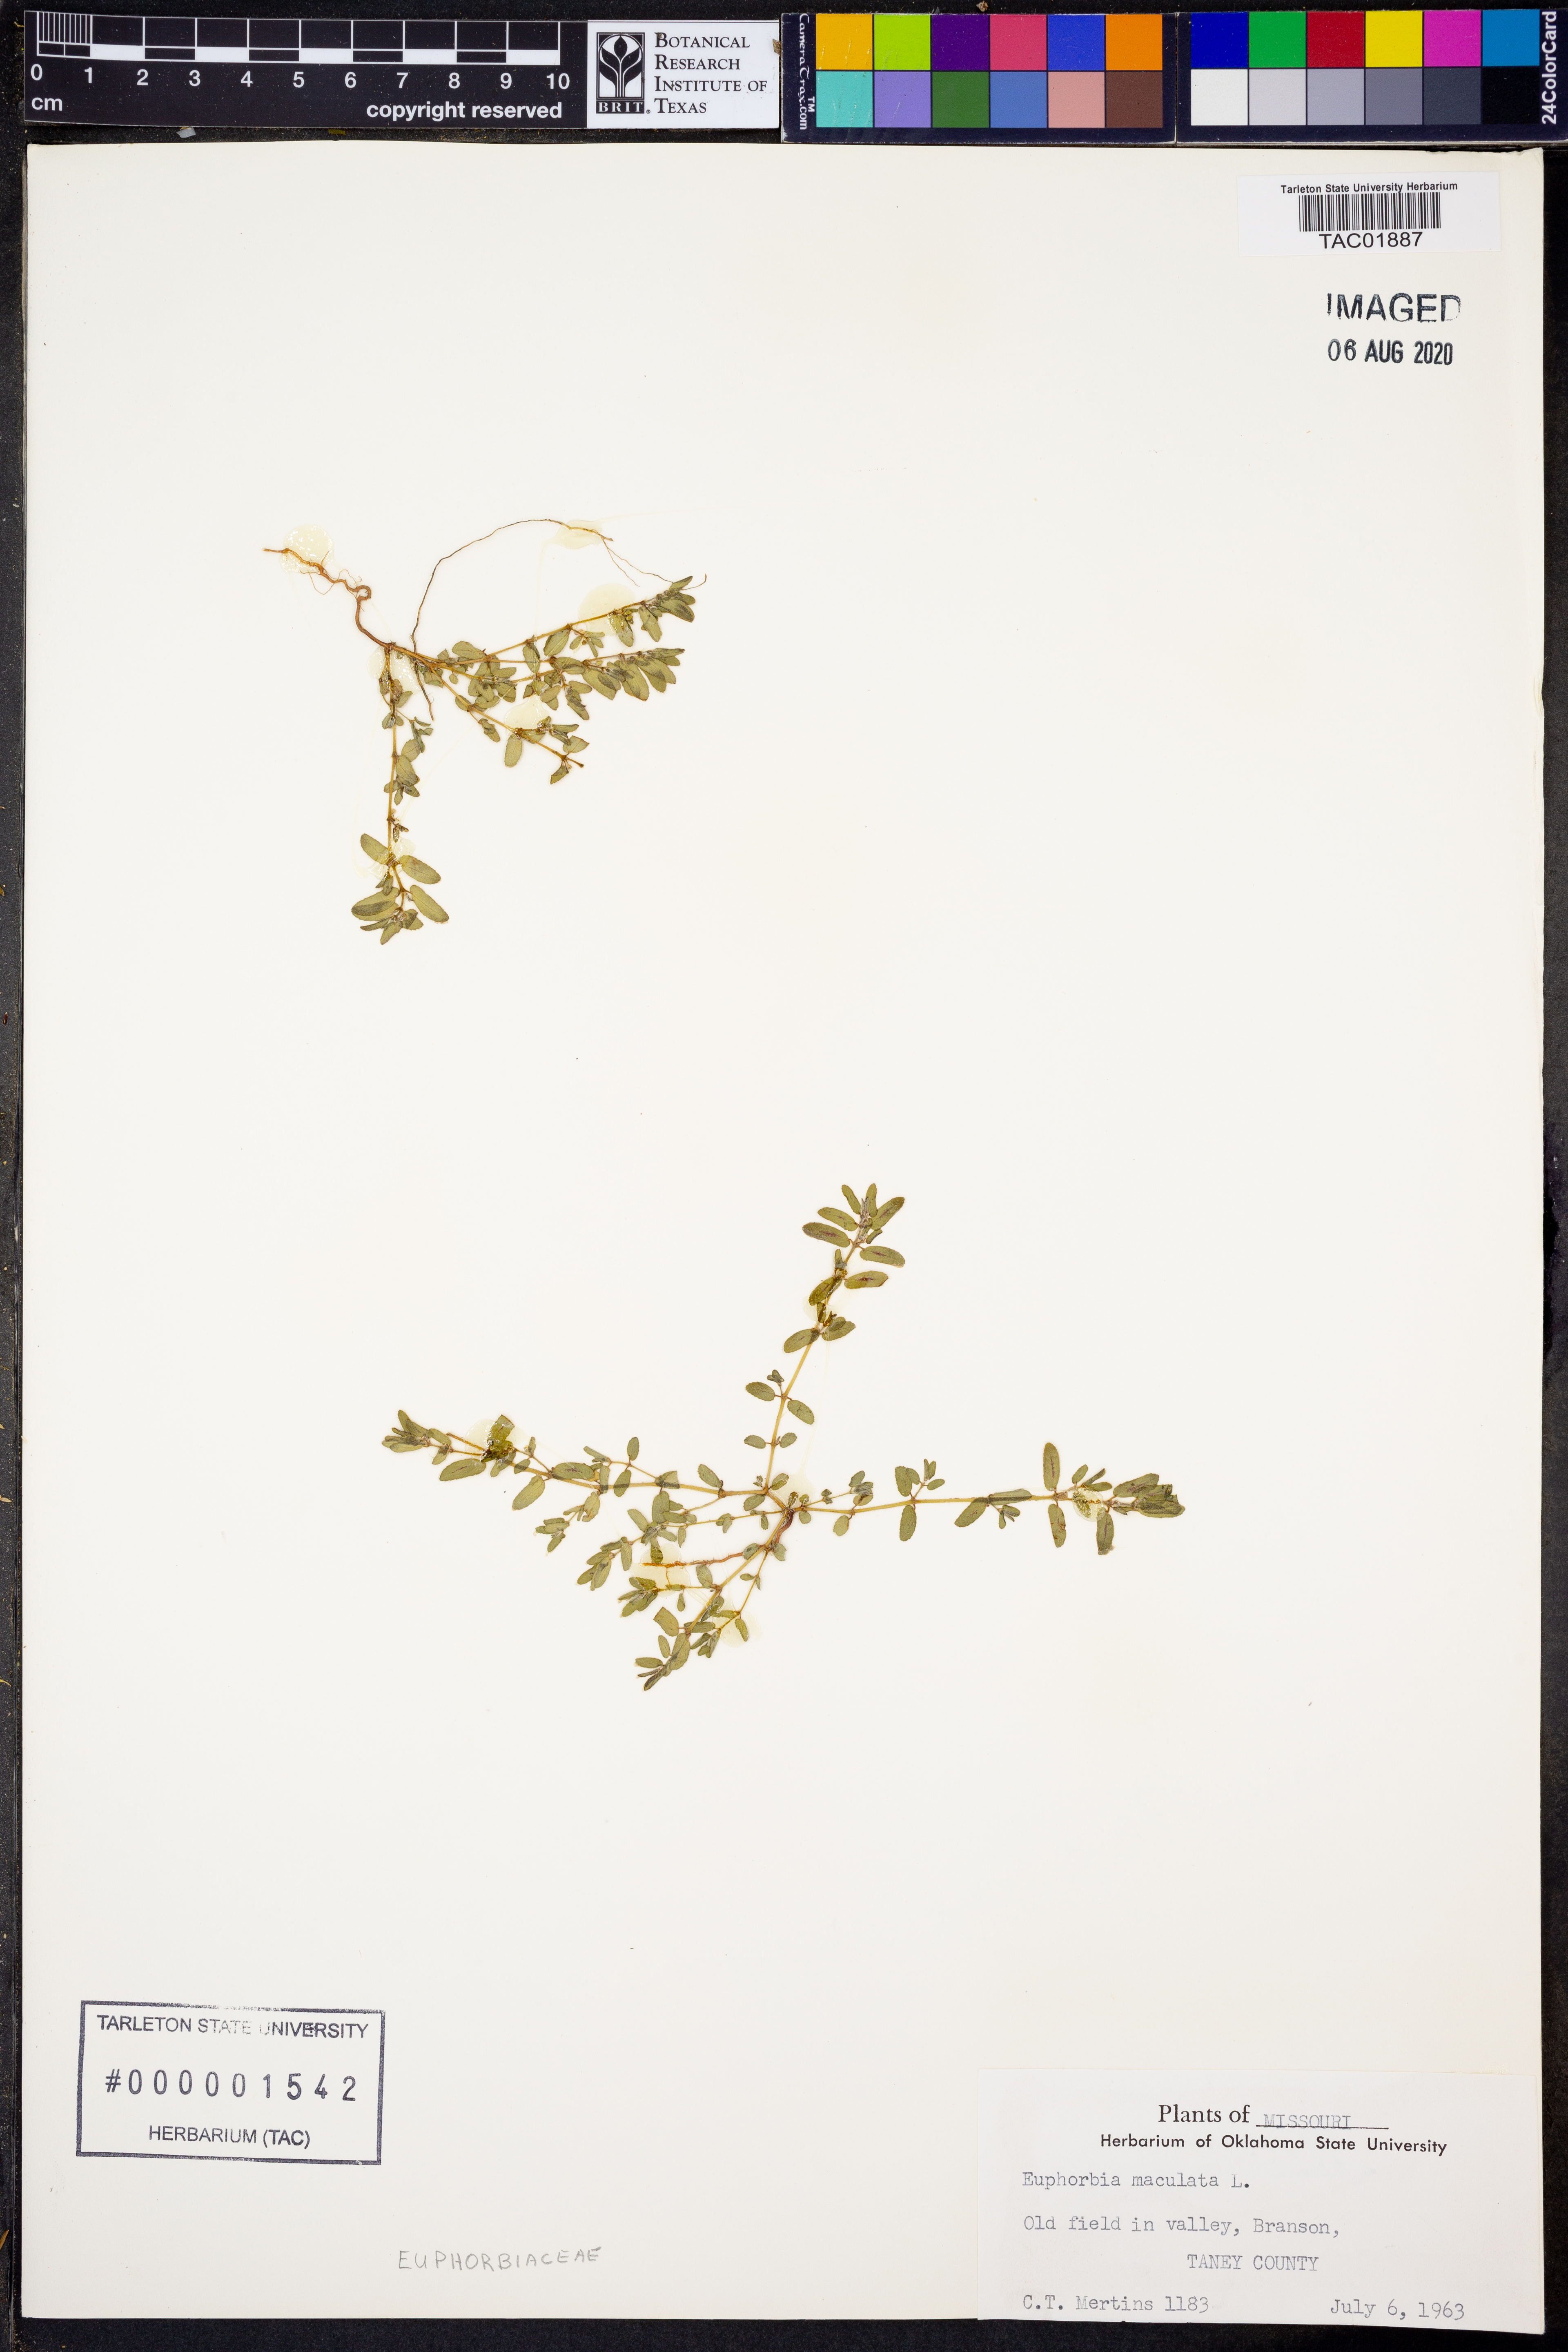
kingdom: Plantae
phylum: Tracheophyta
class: Magnoliopsida
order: Malpighiales
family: Euphorbiaceae
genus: Euphorbia
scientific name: Euphorbia maculata
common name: Spotted spurge
